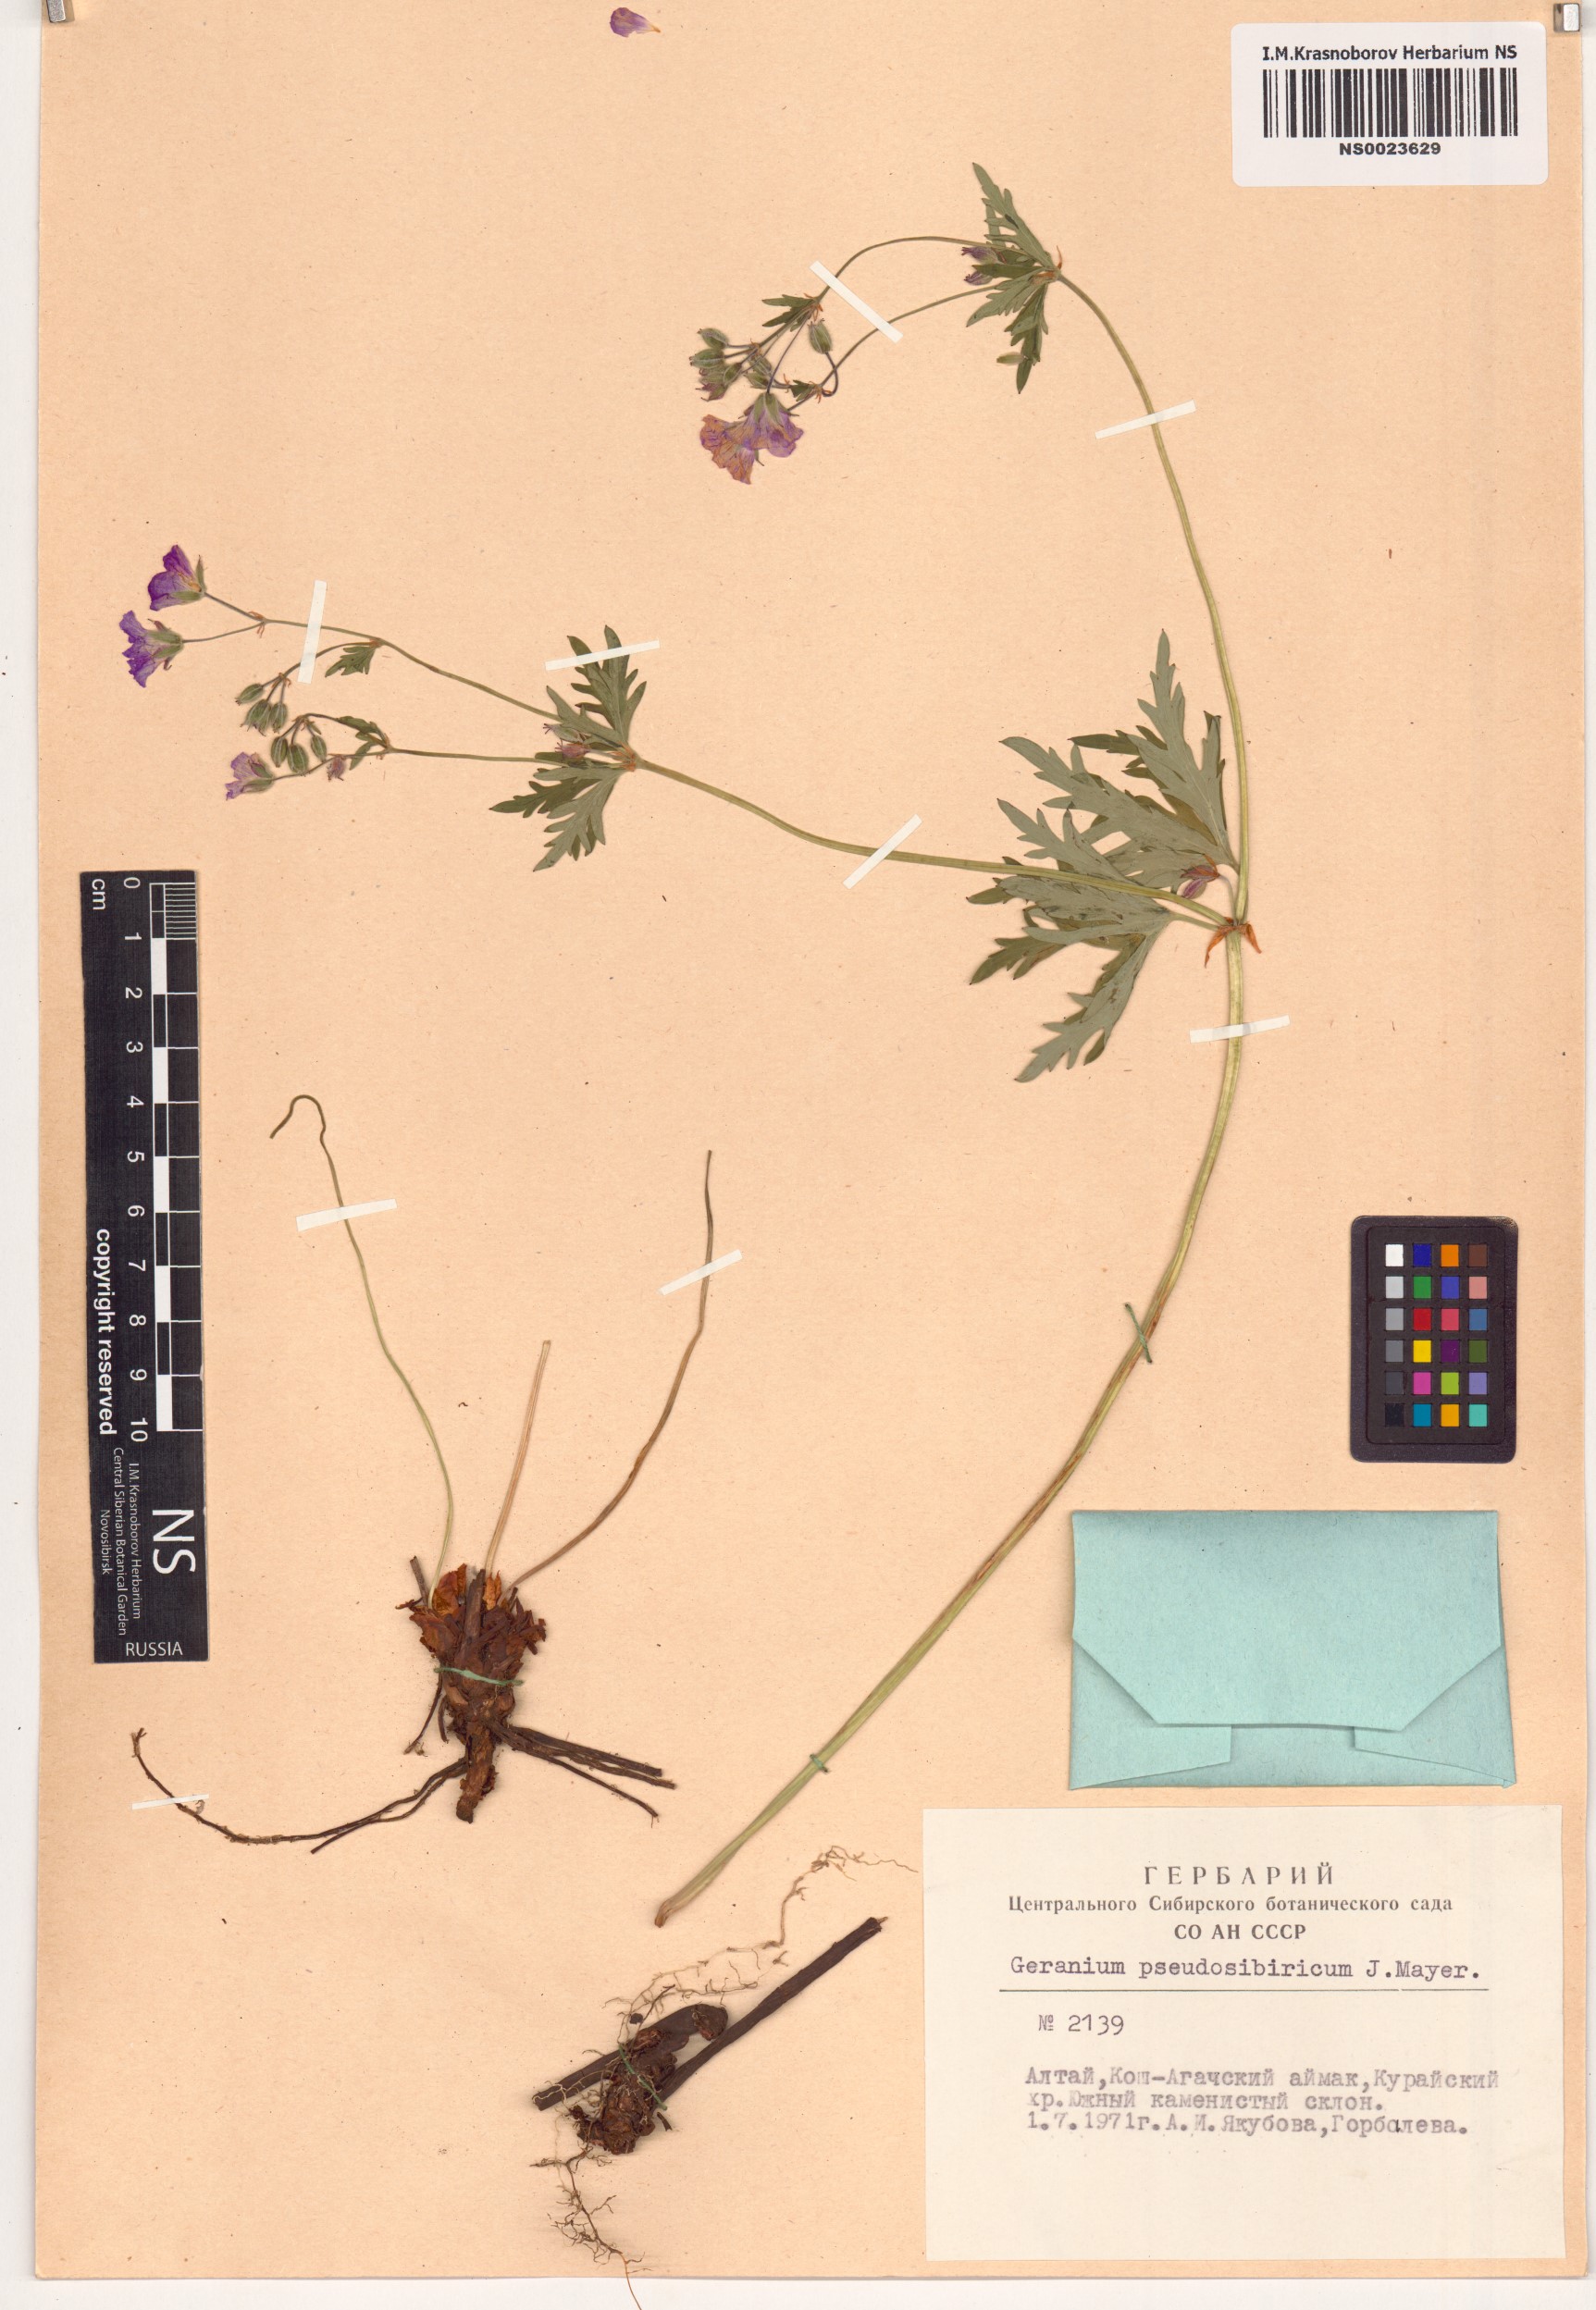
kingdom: Plantae
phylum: Tracheophyta
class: Magnoliopsida
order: Geraniales
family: Geraniaceae
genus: Geranium
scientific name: Geranium pseudosibiricum
